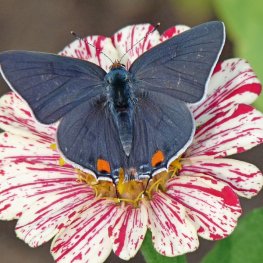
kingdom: Animalia
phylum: Arthropoda
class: Insecta
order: Lepidoptera
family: Lycaenidae
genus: Strymon
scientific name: Strymon melinus
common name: Gray Hairstreak
